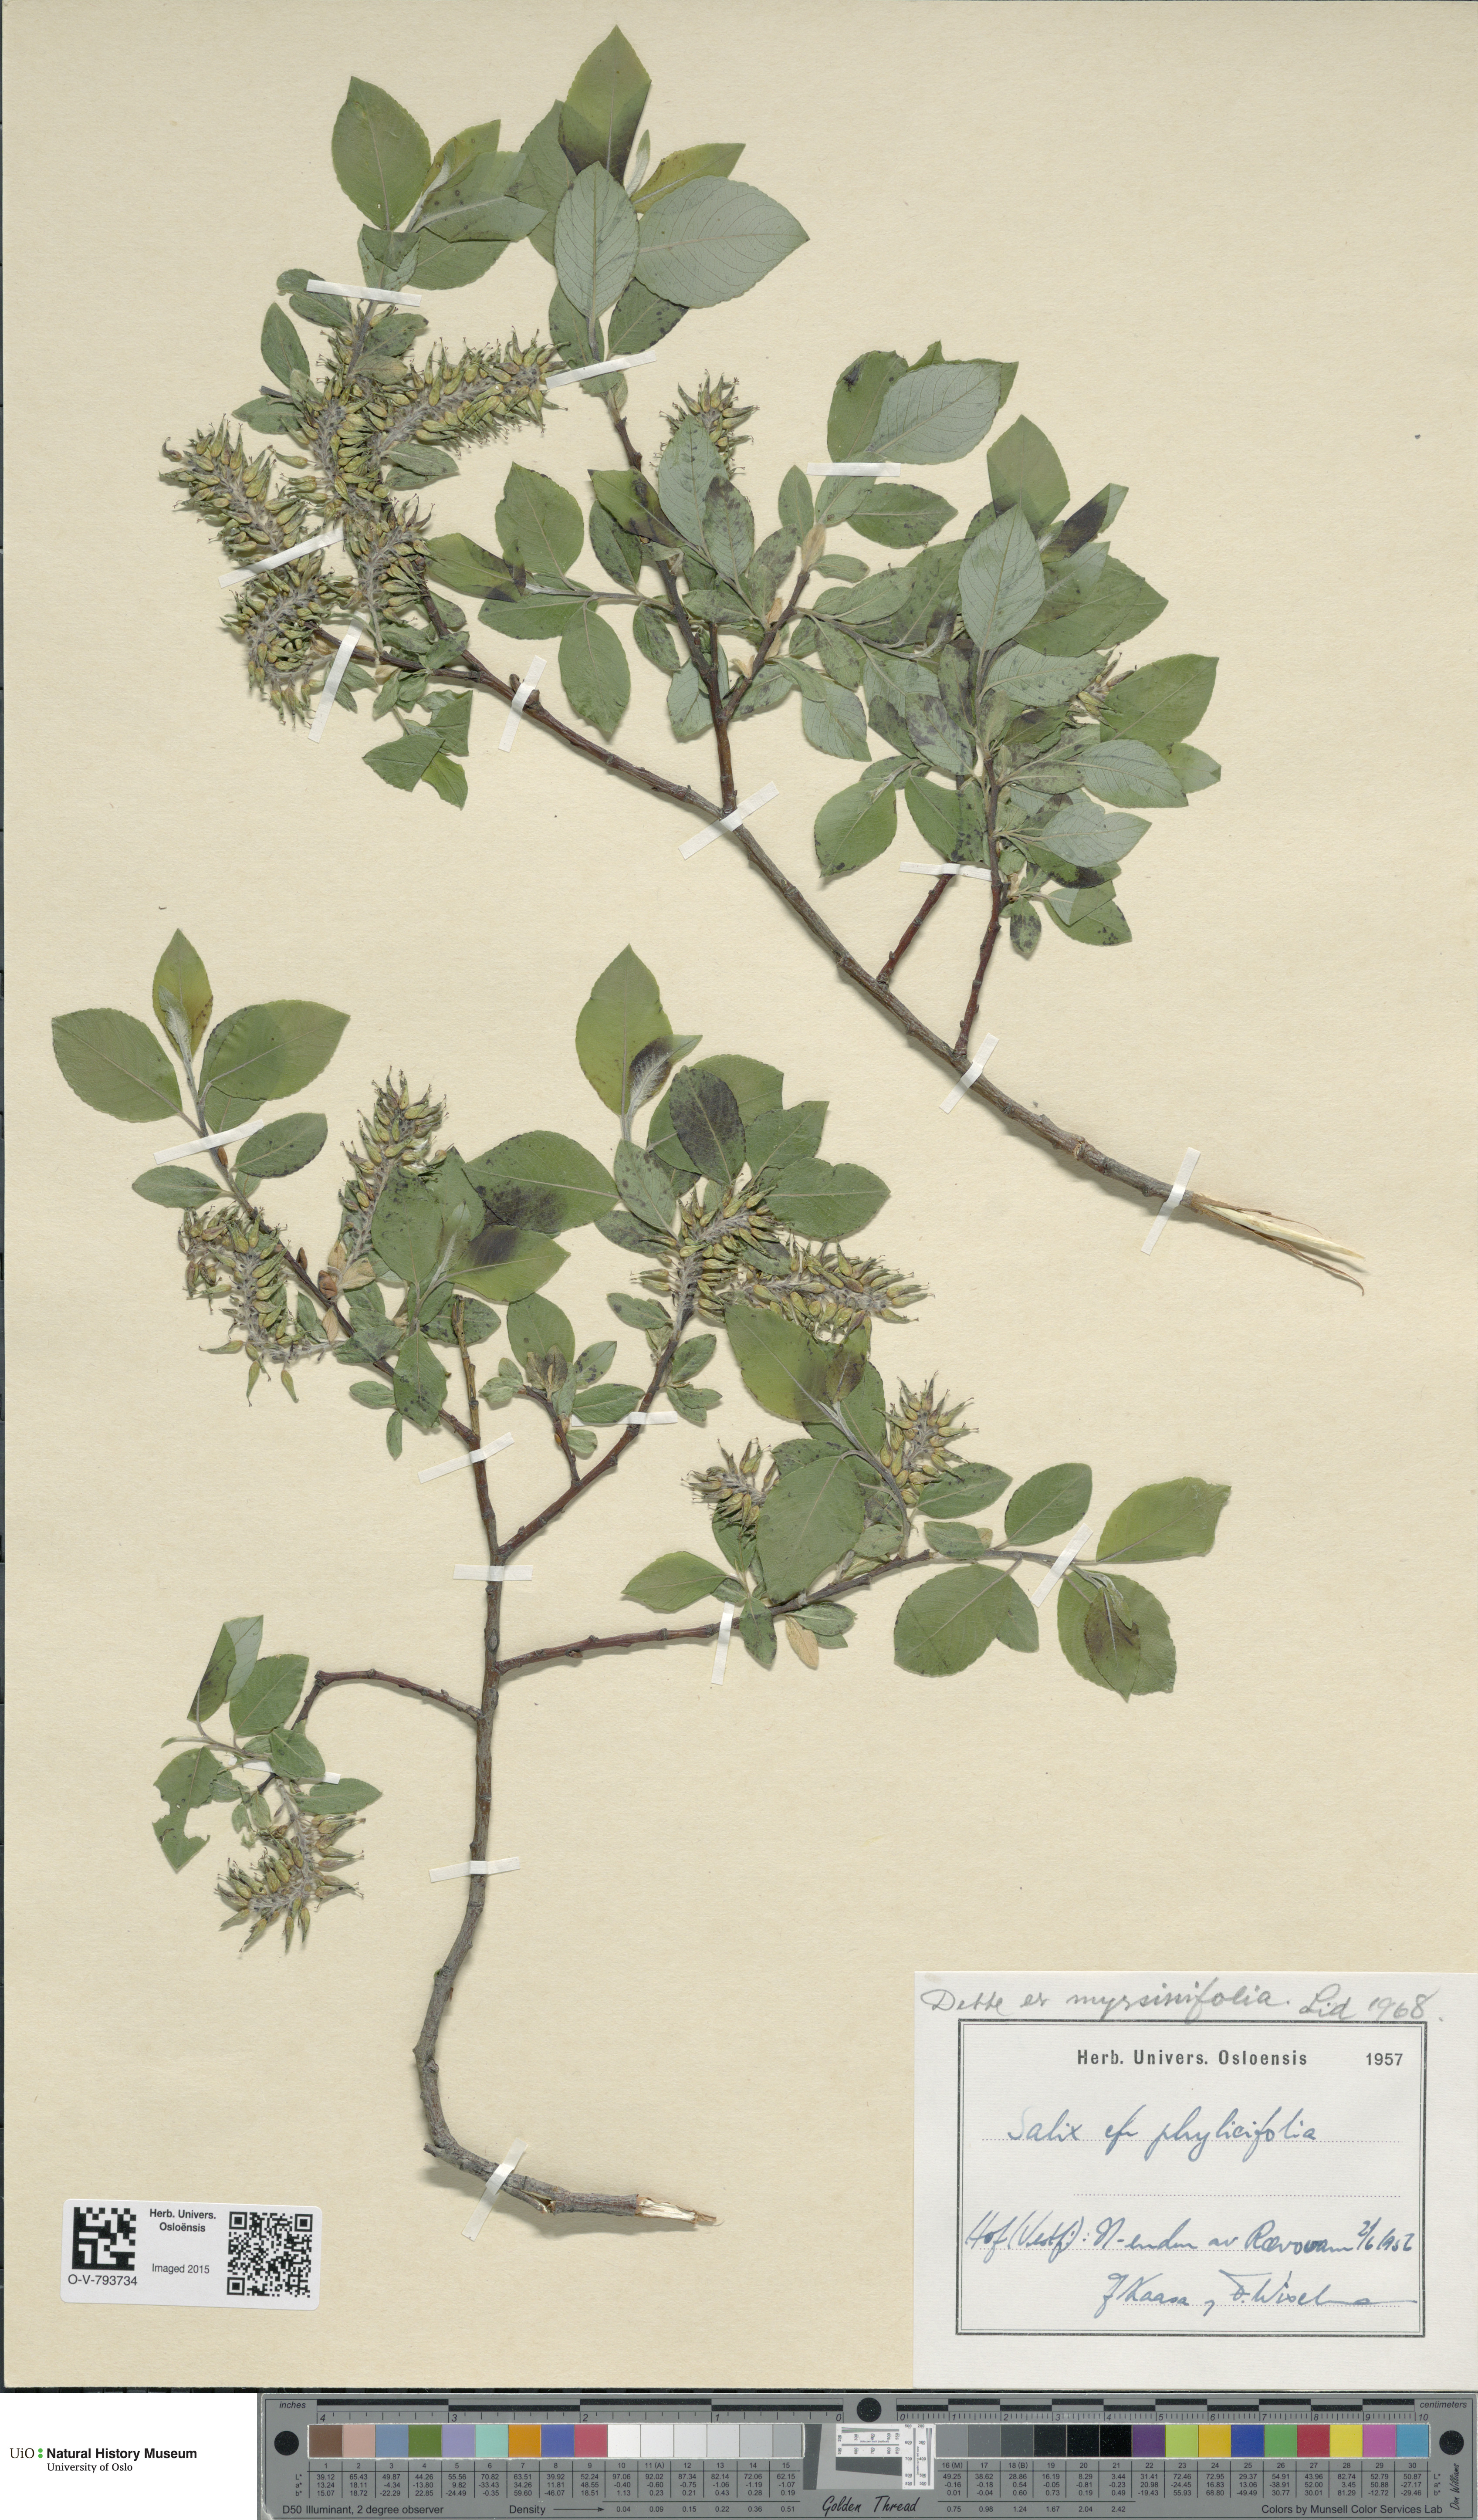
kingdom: Plantae
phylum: Tracheophyta
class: Magnoliopsida
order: Malpighiales
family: Salicaceae
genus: Salix
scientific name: Salix myrsinifolia
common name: Dark-leaved willow
